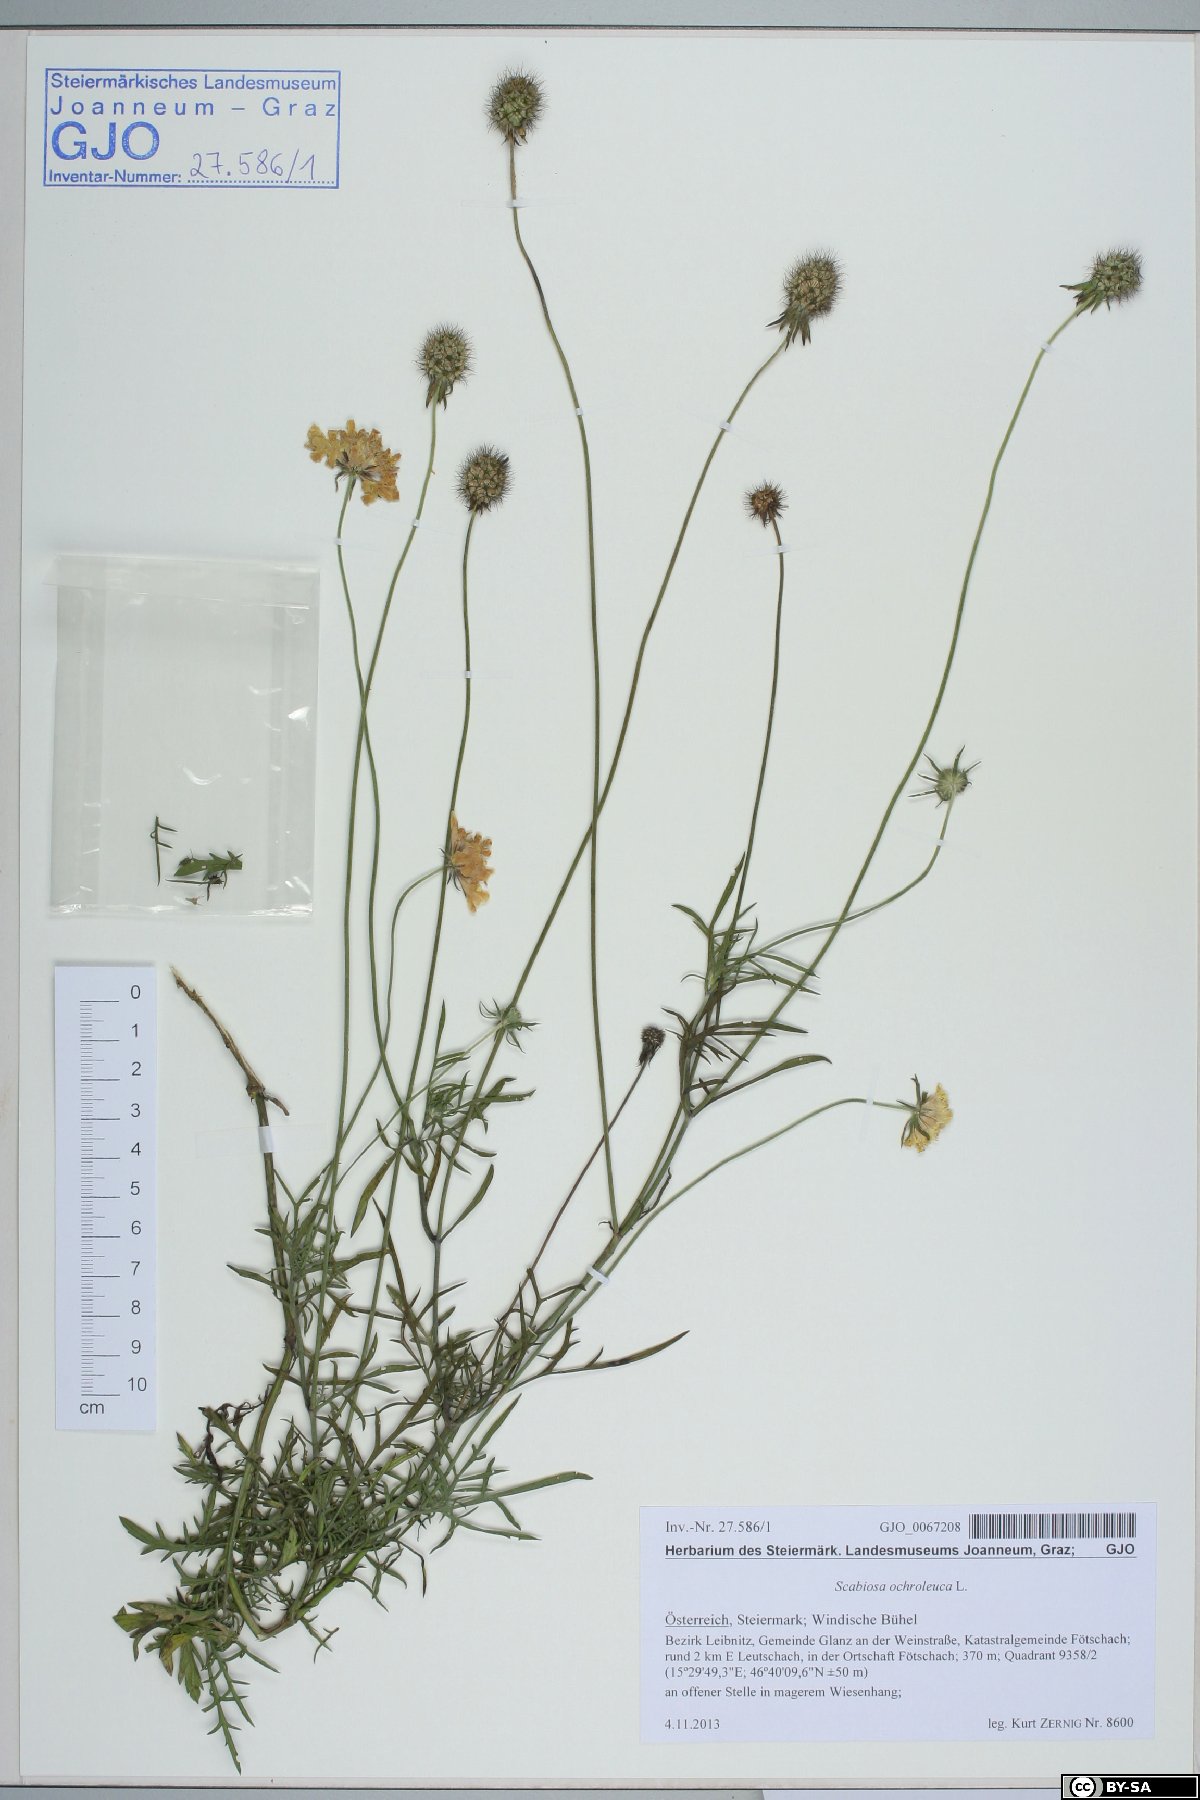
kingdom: Plantae
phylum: Tracheophyta
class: Magnoliopsida
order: Dipsacales
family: Caprifoliaceae
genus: Scabiosa
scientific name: Scabiosa ochroleuca
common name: Cream pincushions
